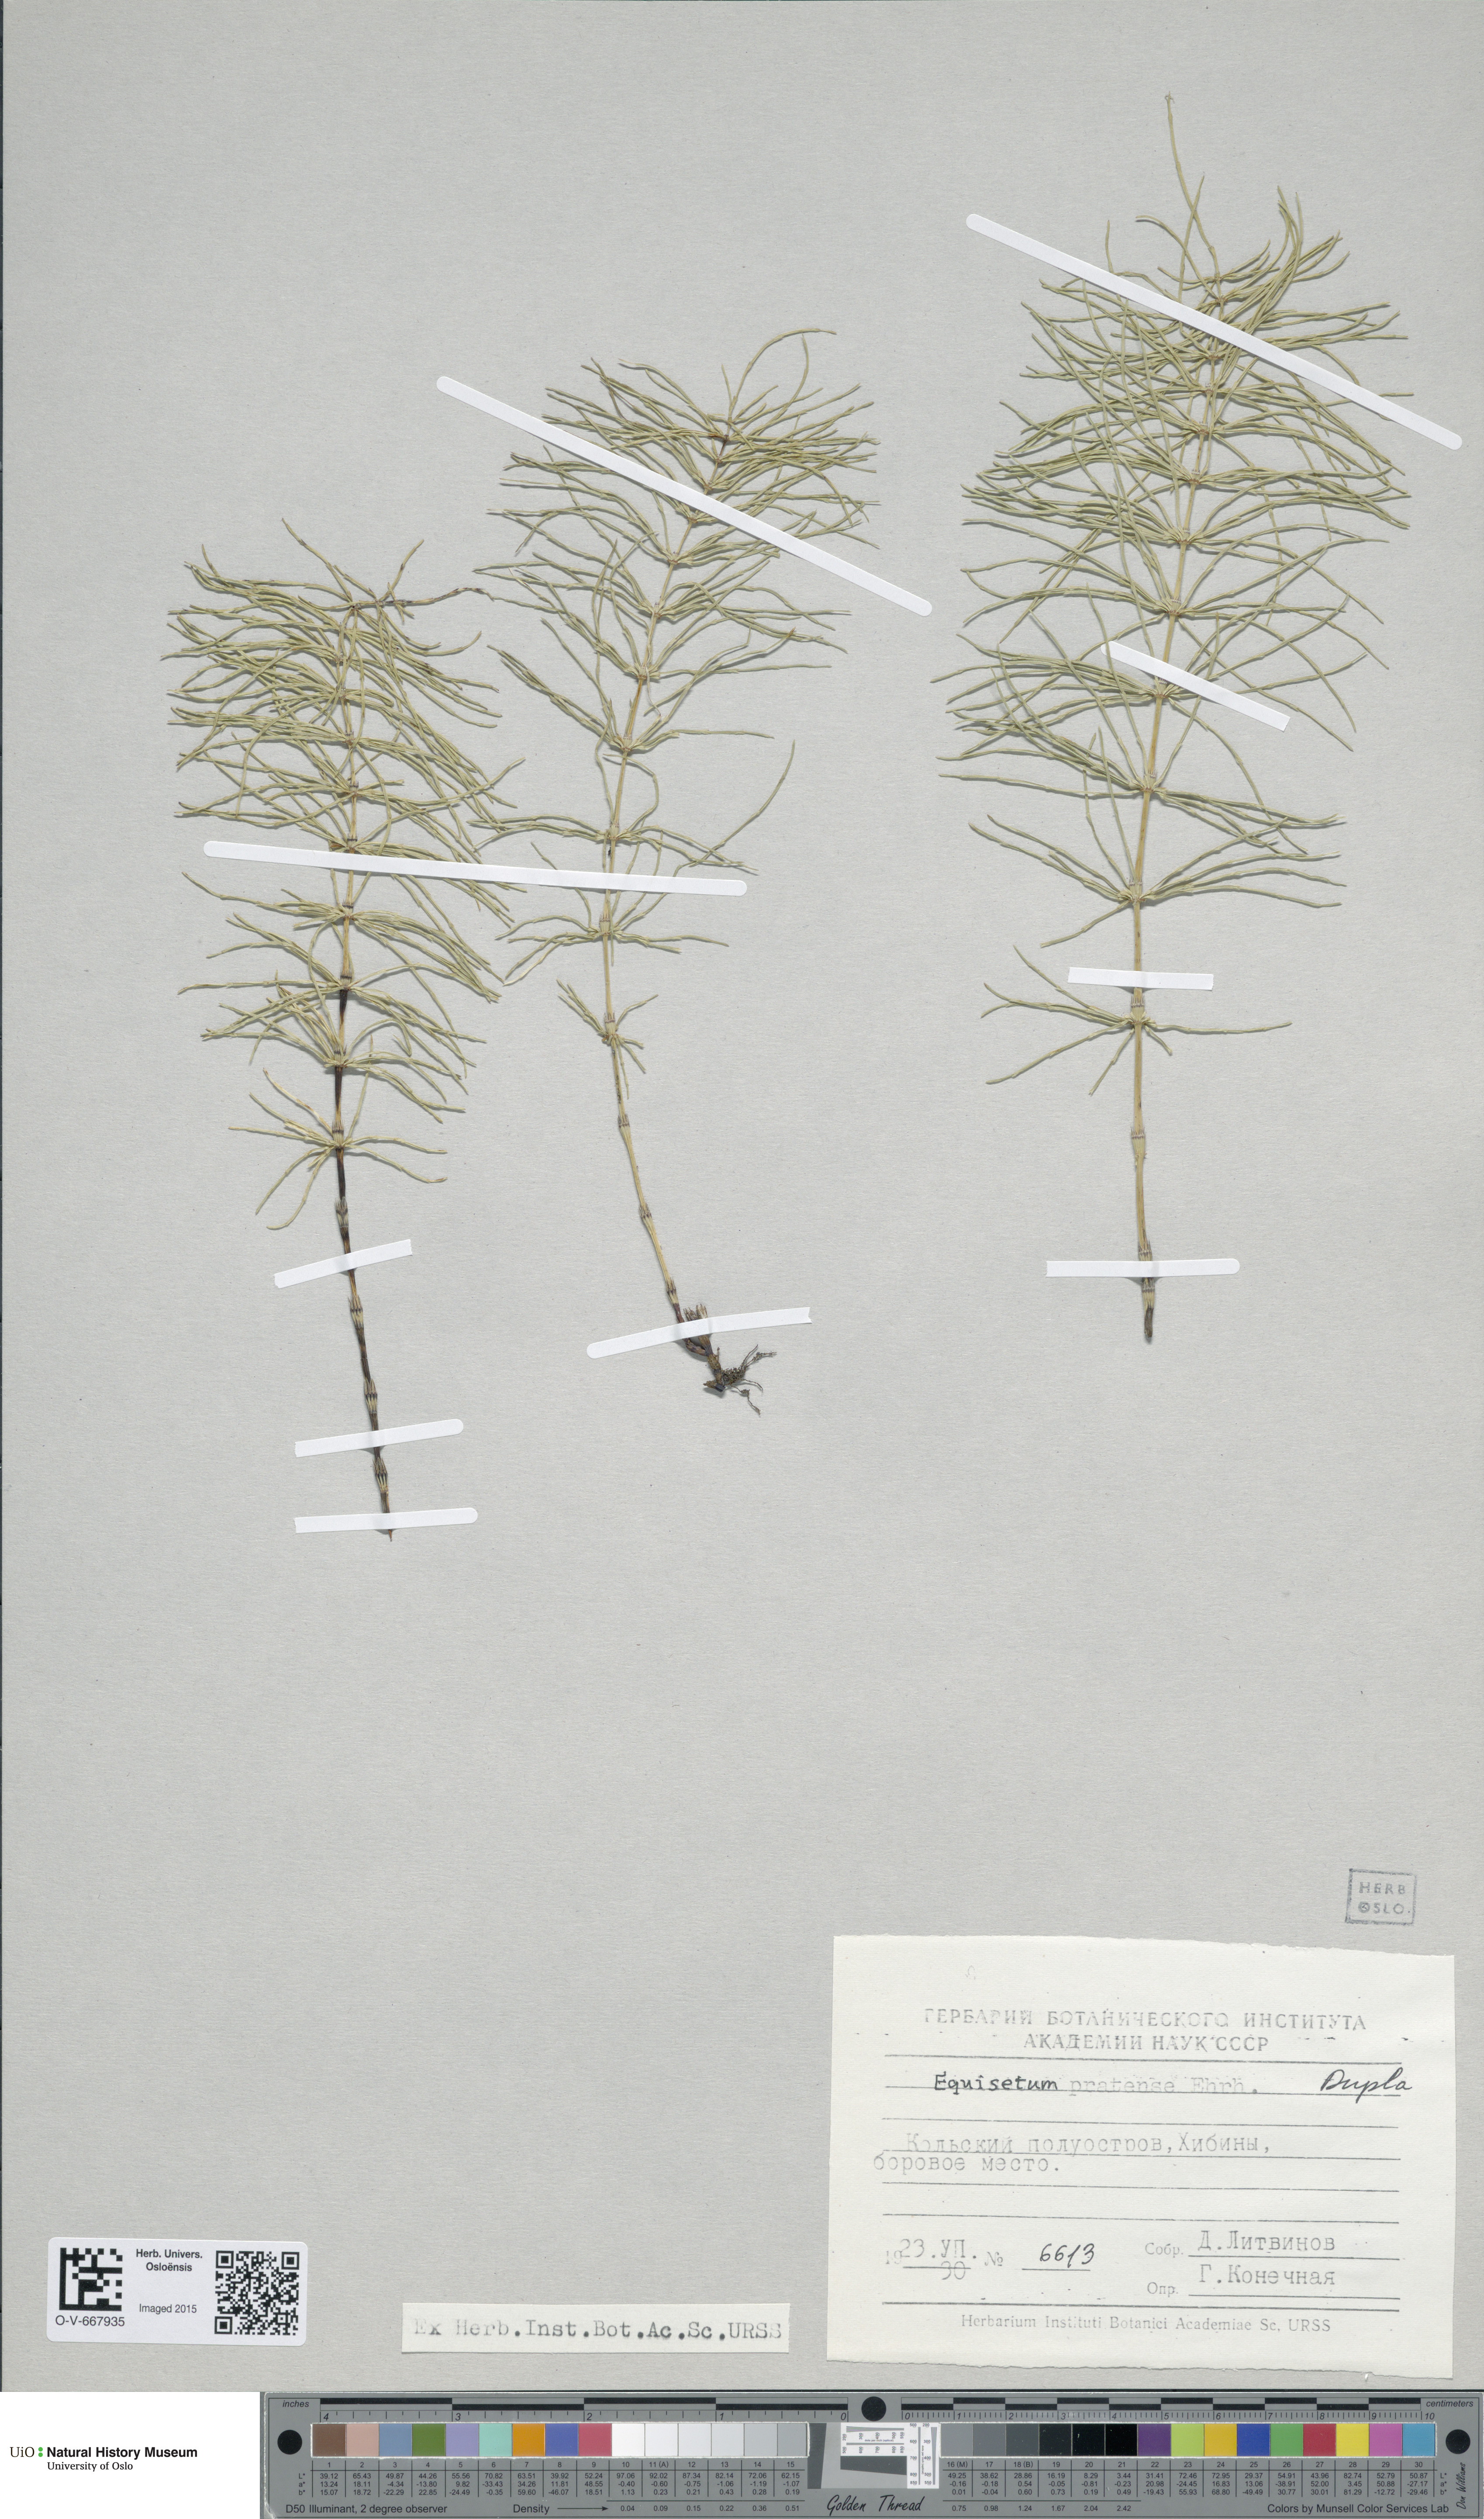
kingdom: Plantae
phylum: Tracheophyta
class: Polypodiopsida
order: Equisetales
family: Equisetaceae
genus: Equisetum
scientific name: Equisetum pratense
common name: Meadow horsetail
